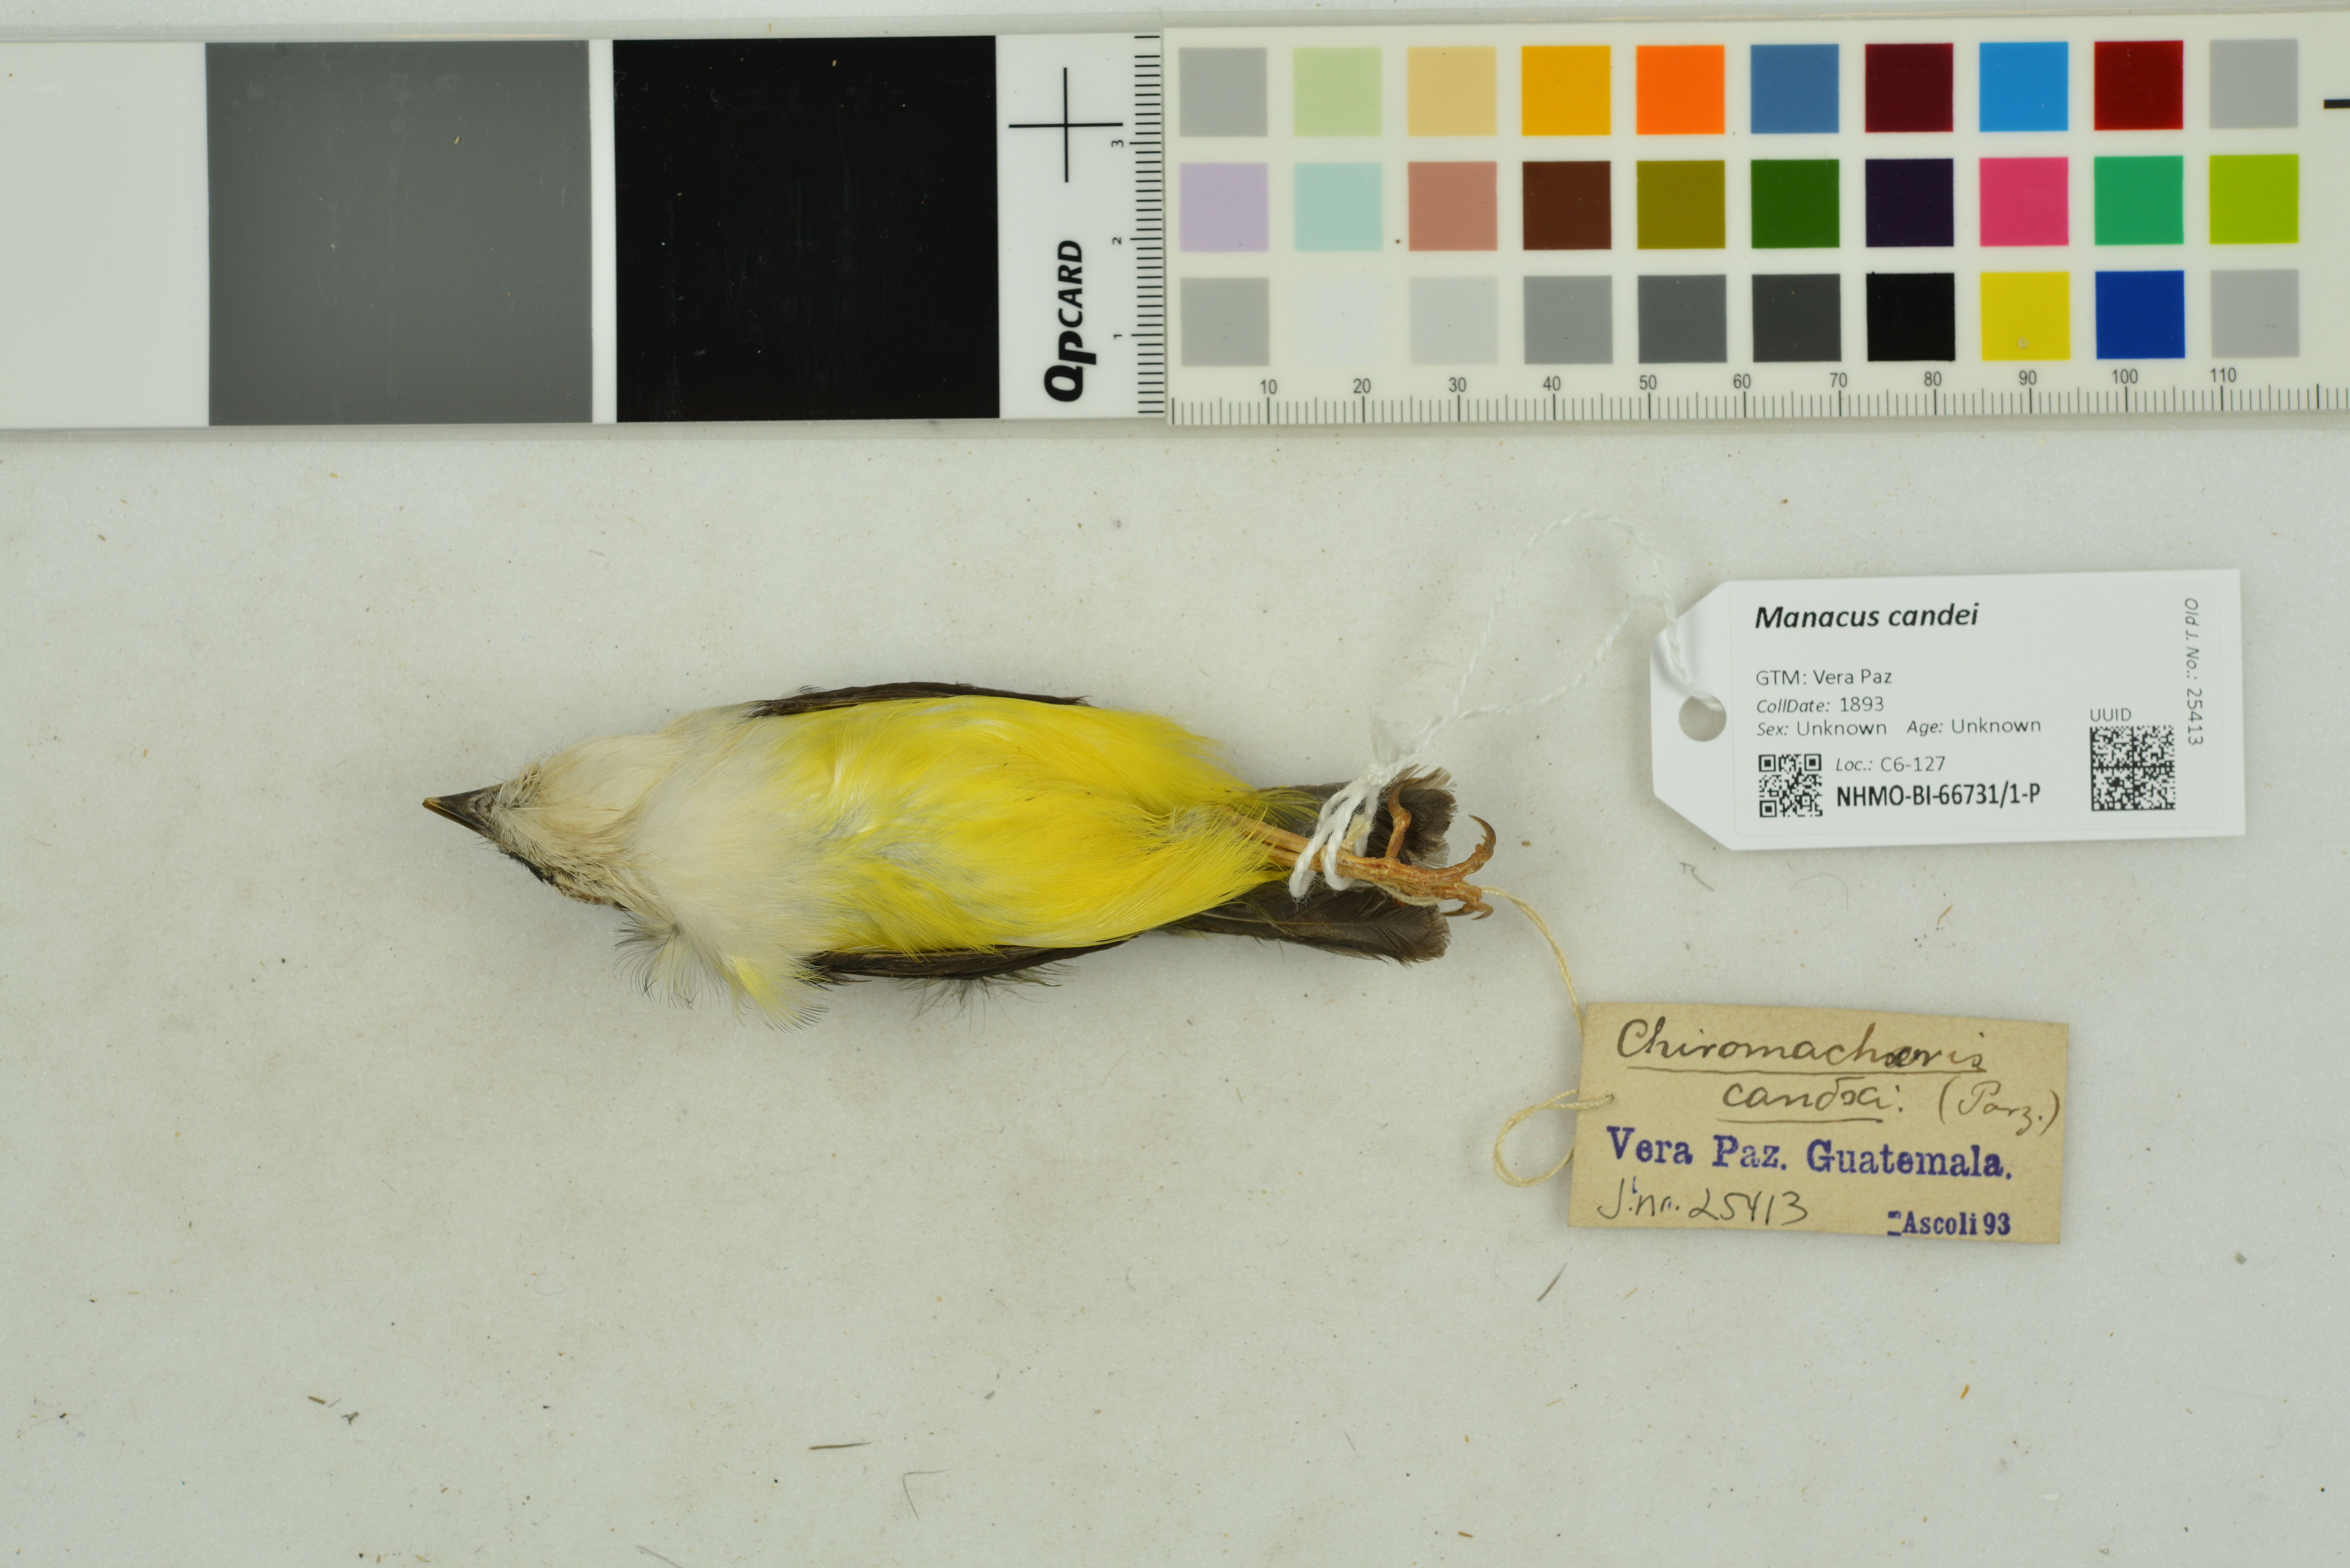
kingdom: Animalia
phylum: Chordata
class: Aves
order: Passeriformes
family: Pipridae
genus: Manacus
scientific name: Manacus candei
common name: White-collared manakin
